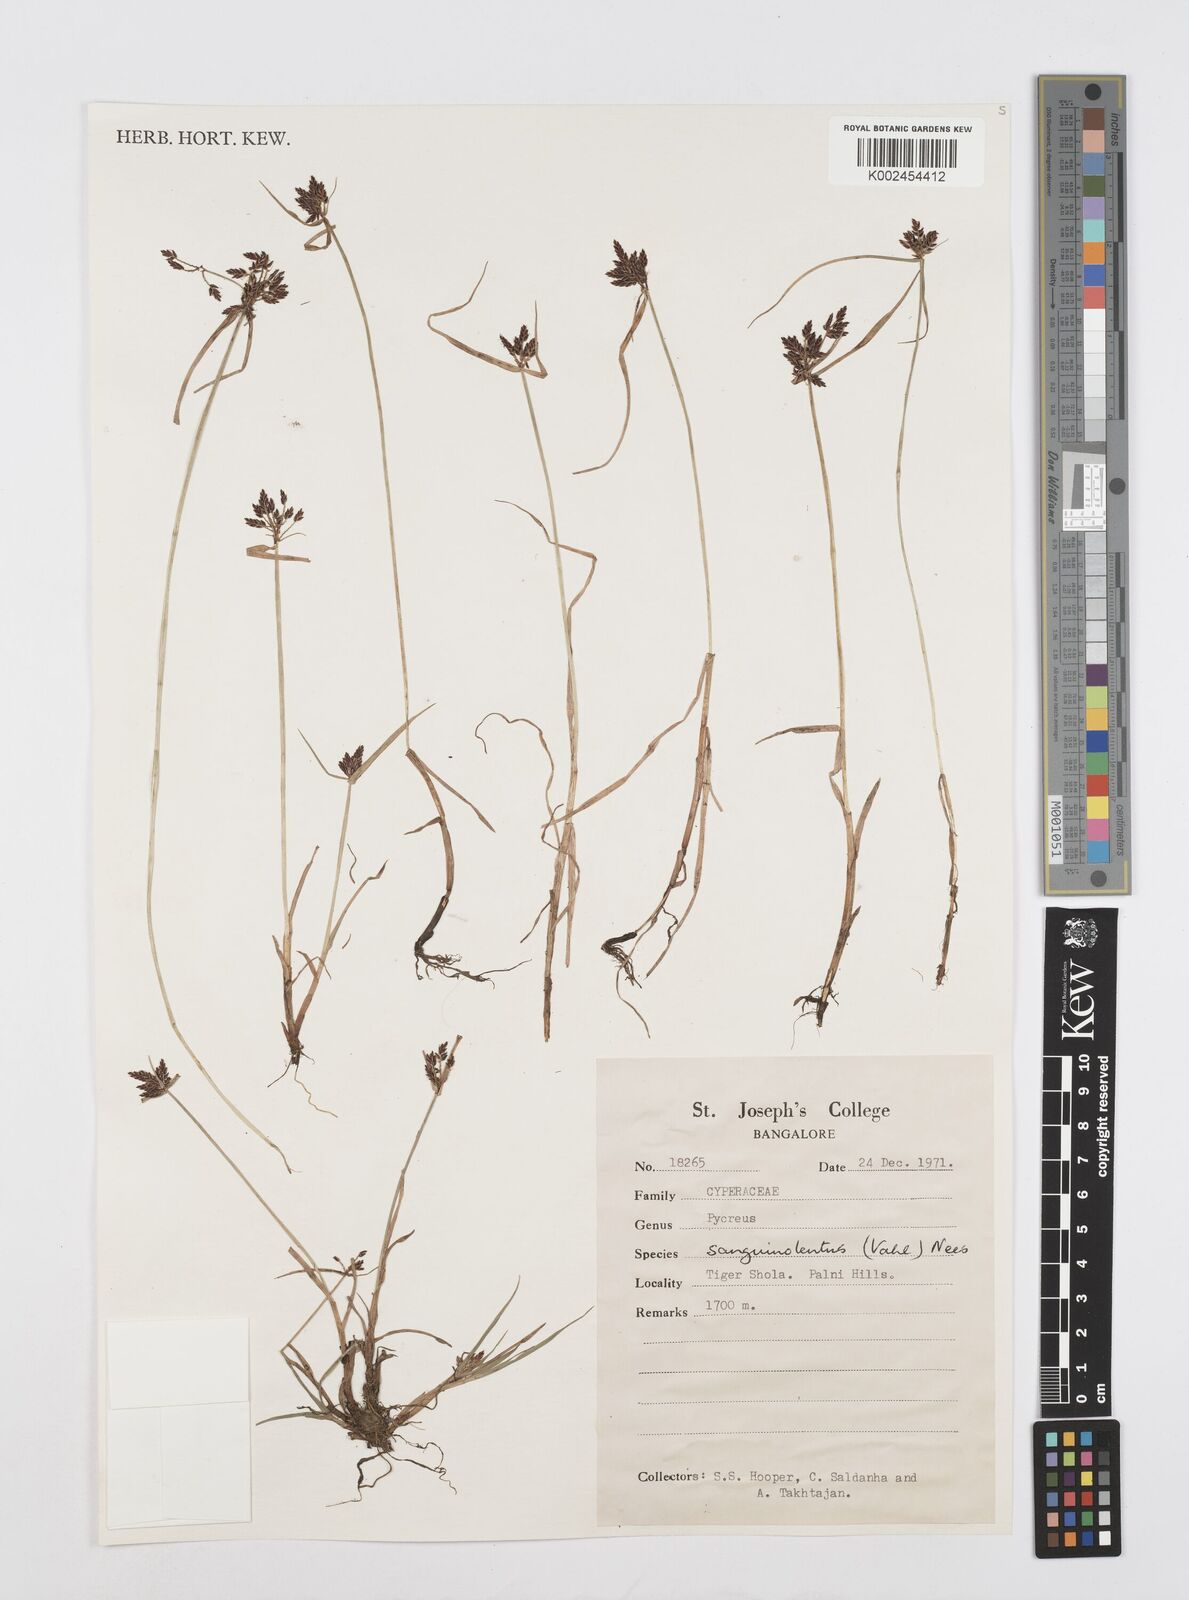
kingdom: Plantae
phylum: Tracheophyta
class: Liliopsida
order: Poales
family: Cyperaceae
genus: Cyperus
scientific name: Cyperus sanguinolentus
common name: Purpleglume flatsedge
